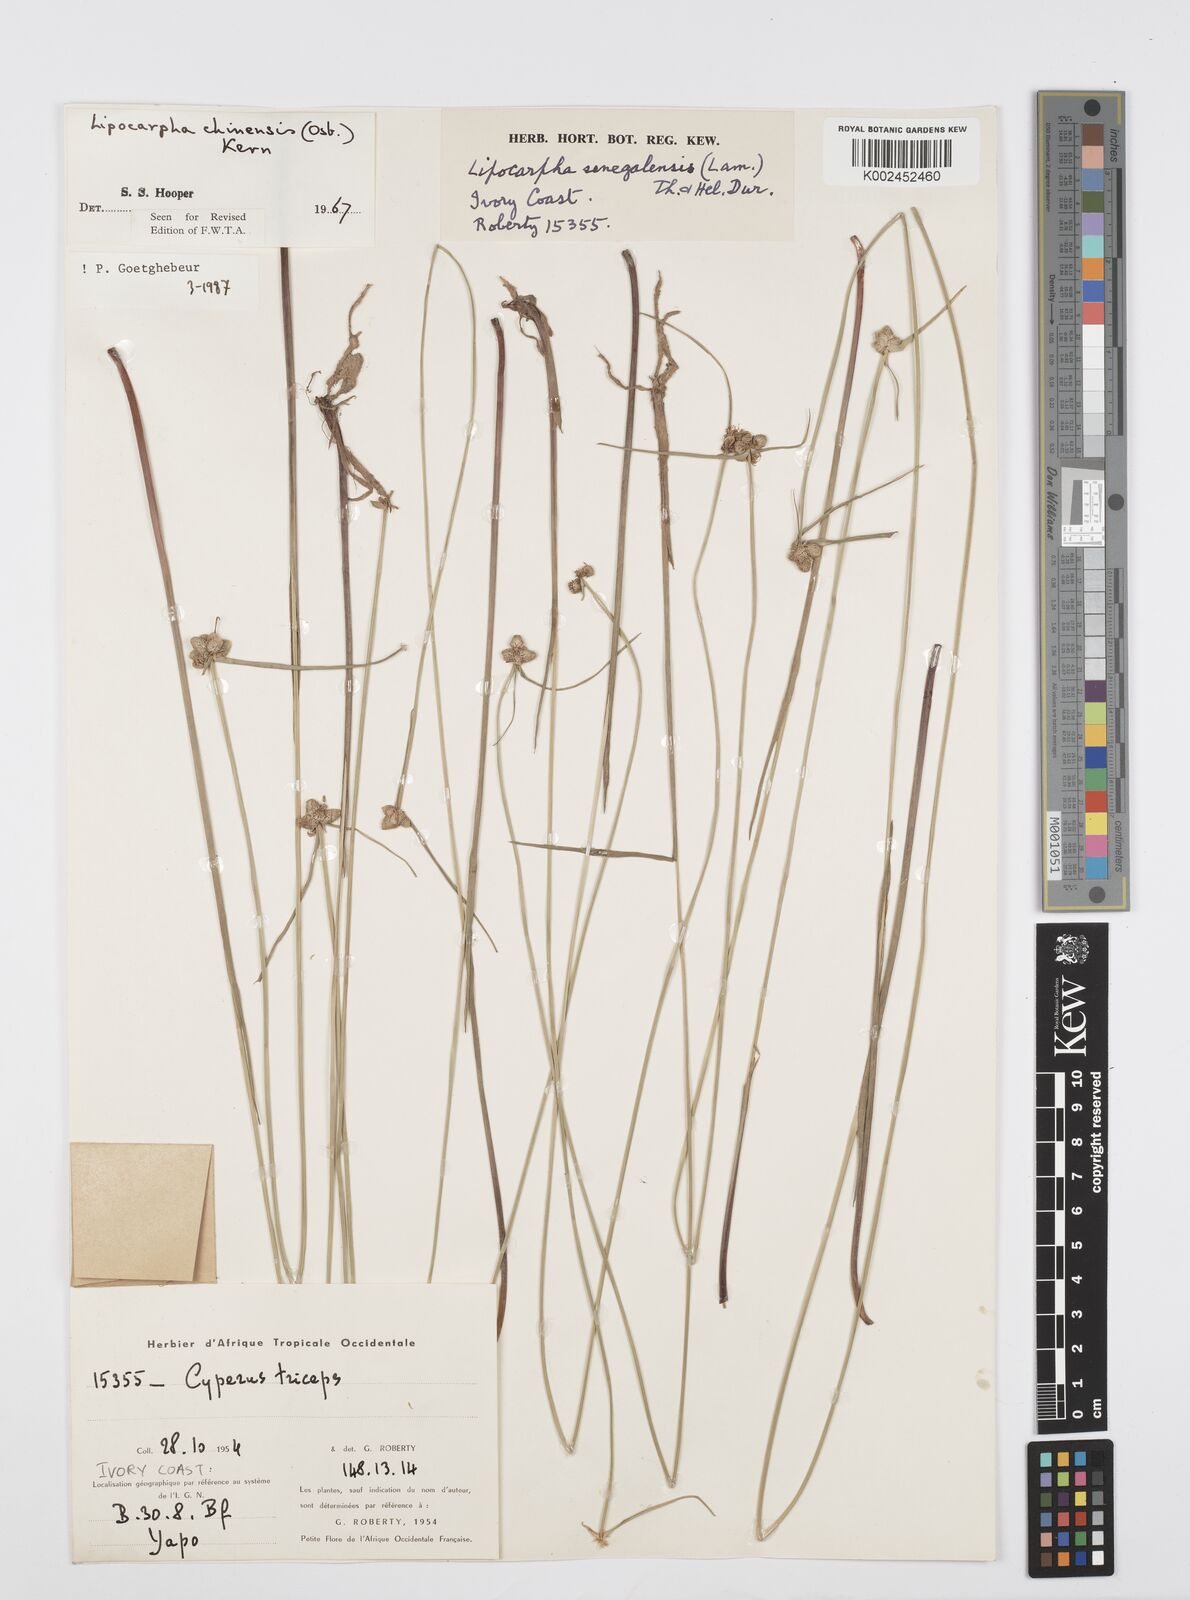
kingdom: Plantae
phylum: Tracheophyta
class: Liliopsida
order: Poales
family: Cyperaceae
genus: Cyperus
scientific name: Cyperus albescens
